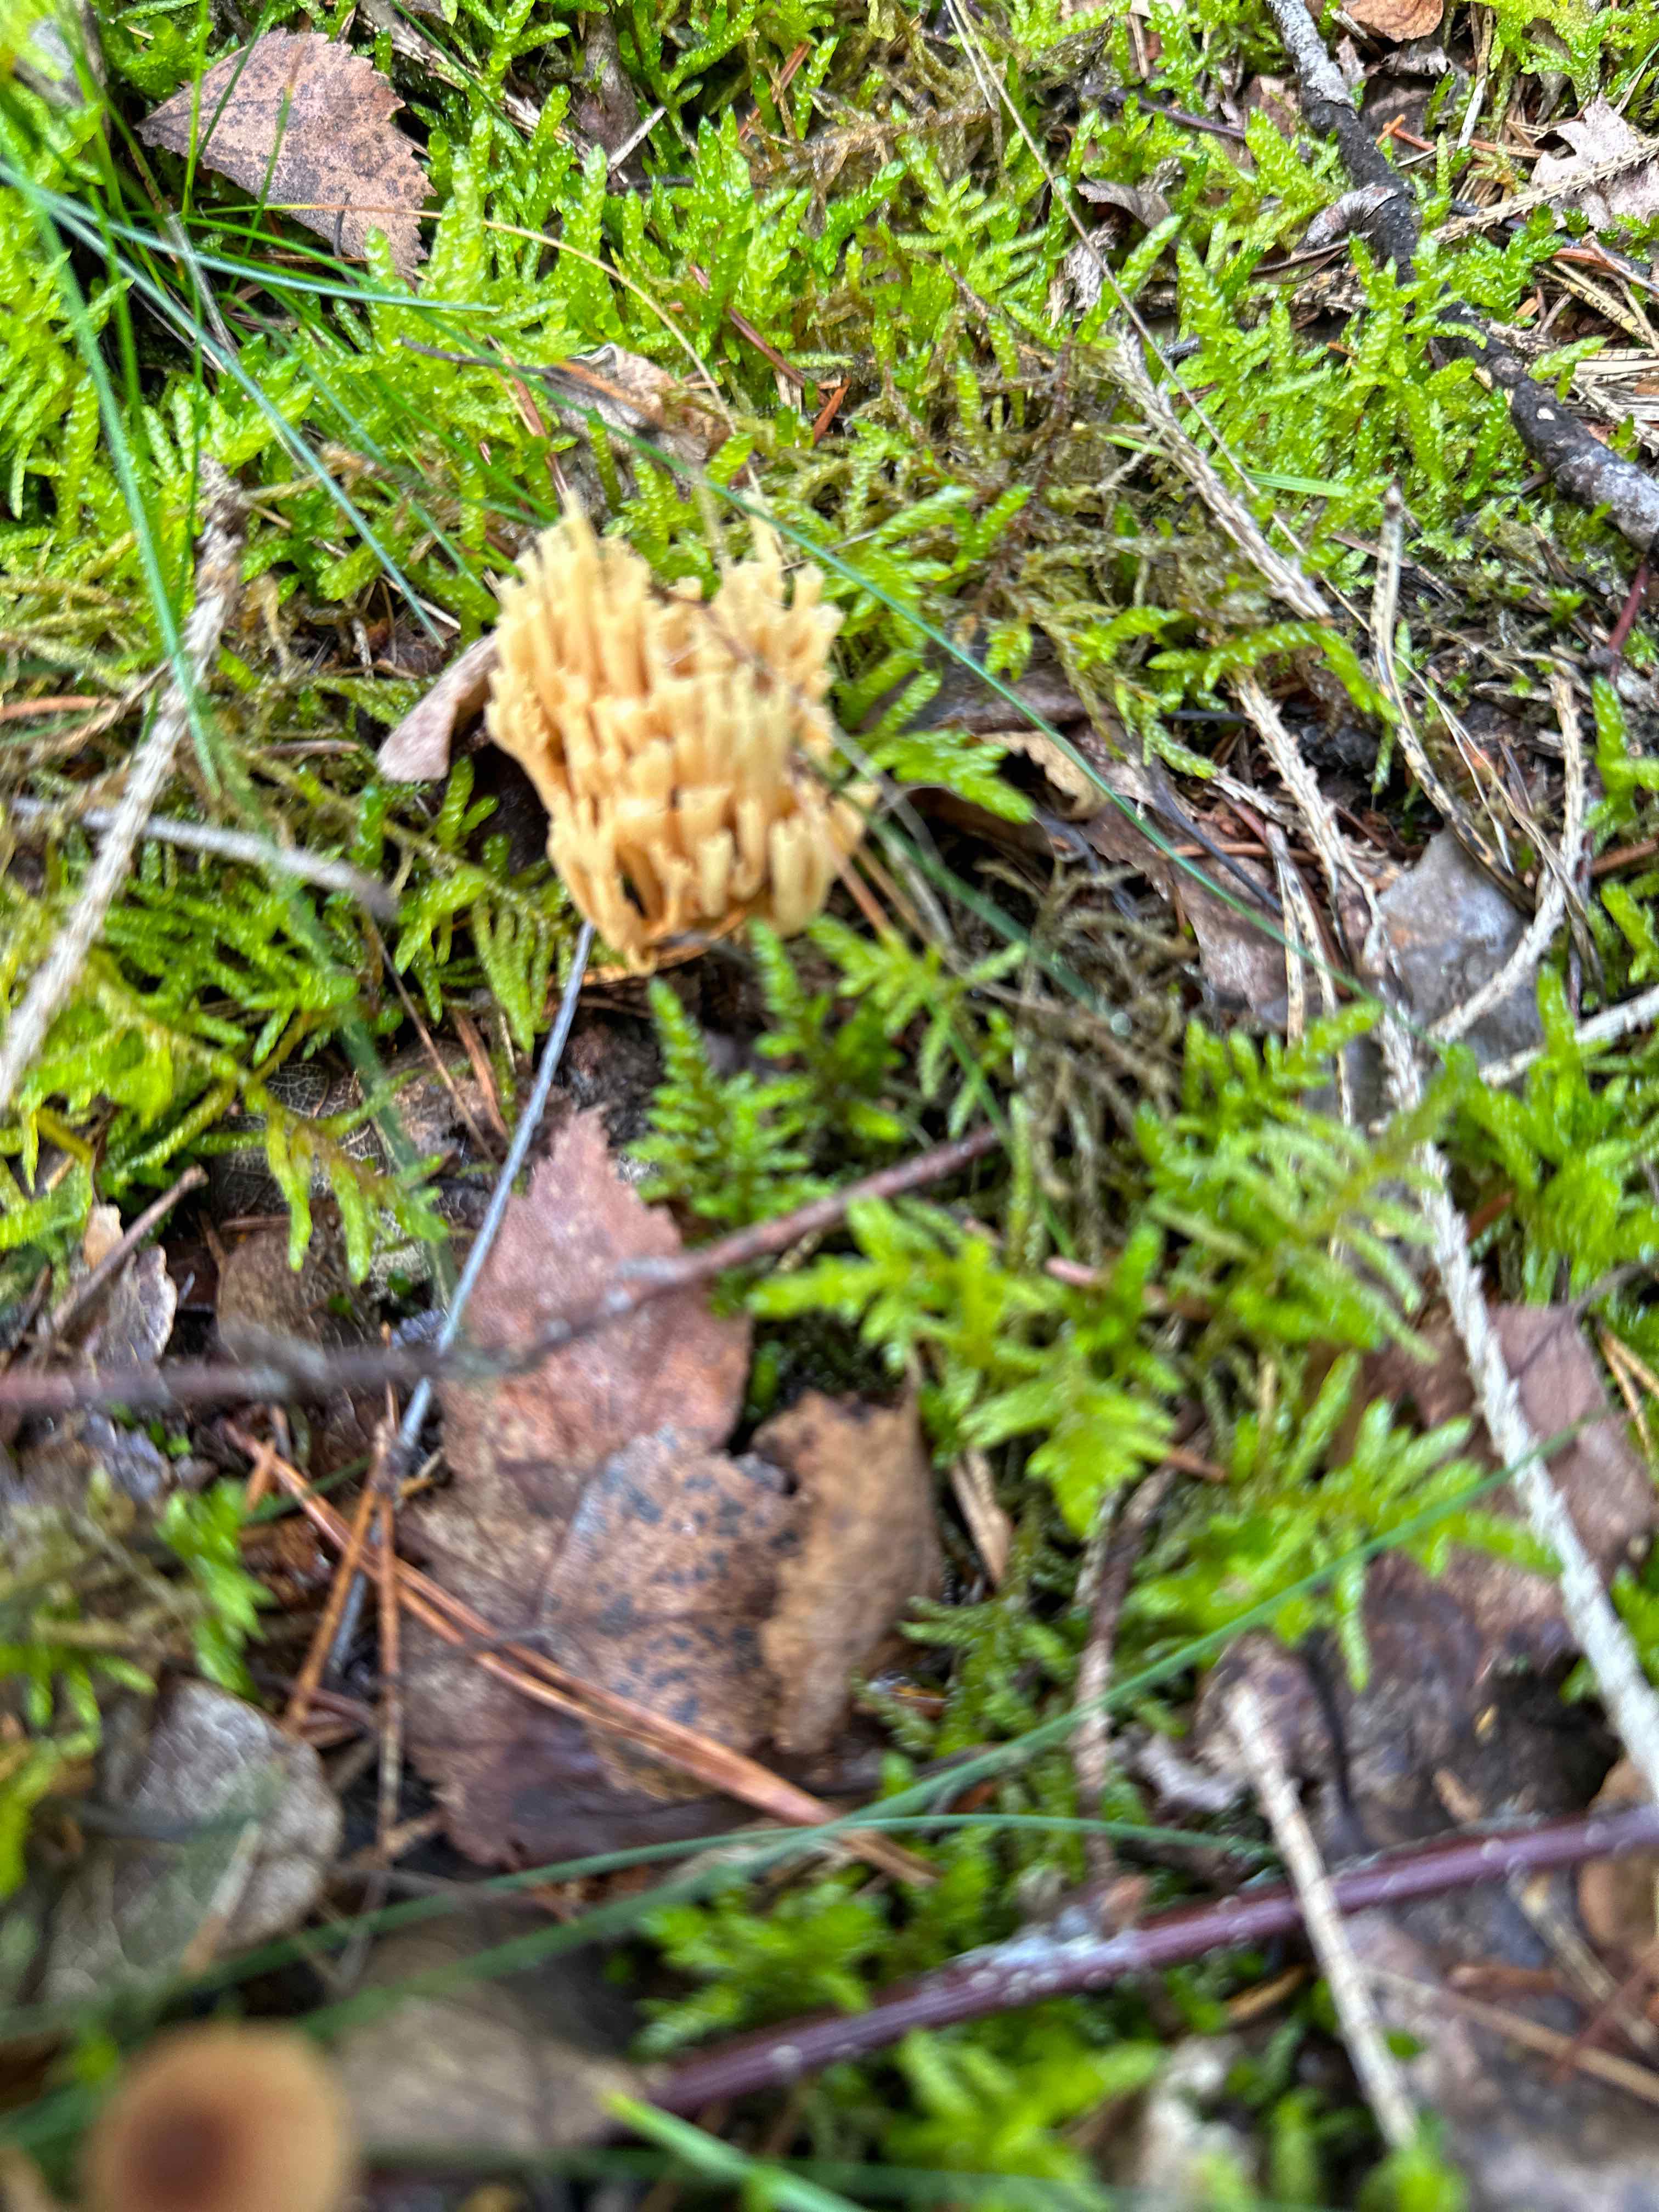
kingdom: Fungi
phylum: Basidiomycota
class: Agaricomycetes
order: Gomphales
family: Gomphaceae
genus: Phaeoclavulina
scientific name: Phaeoclavulina eumorpha
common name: gran-koralsvamp
